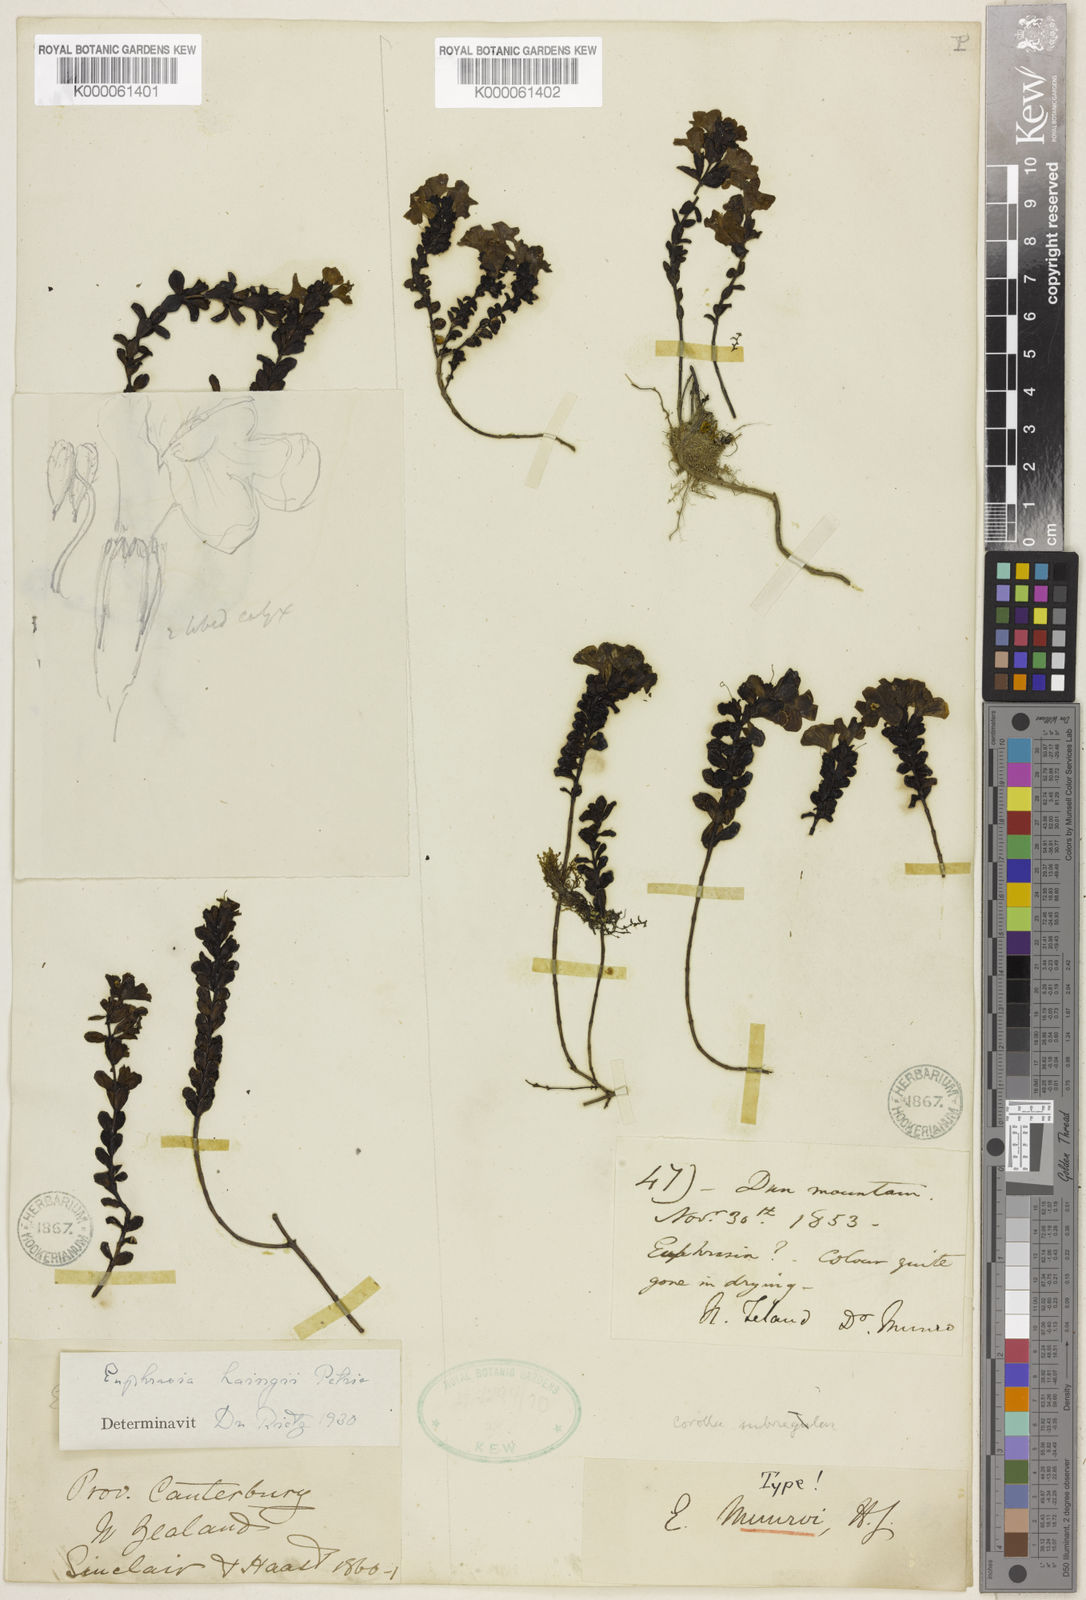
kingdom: Plantae
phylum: Tracheophyta
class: Magnoliopsida
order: Lamiales
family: Orobanchaceae
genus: Euphrasia
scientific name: Euphrasia
